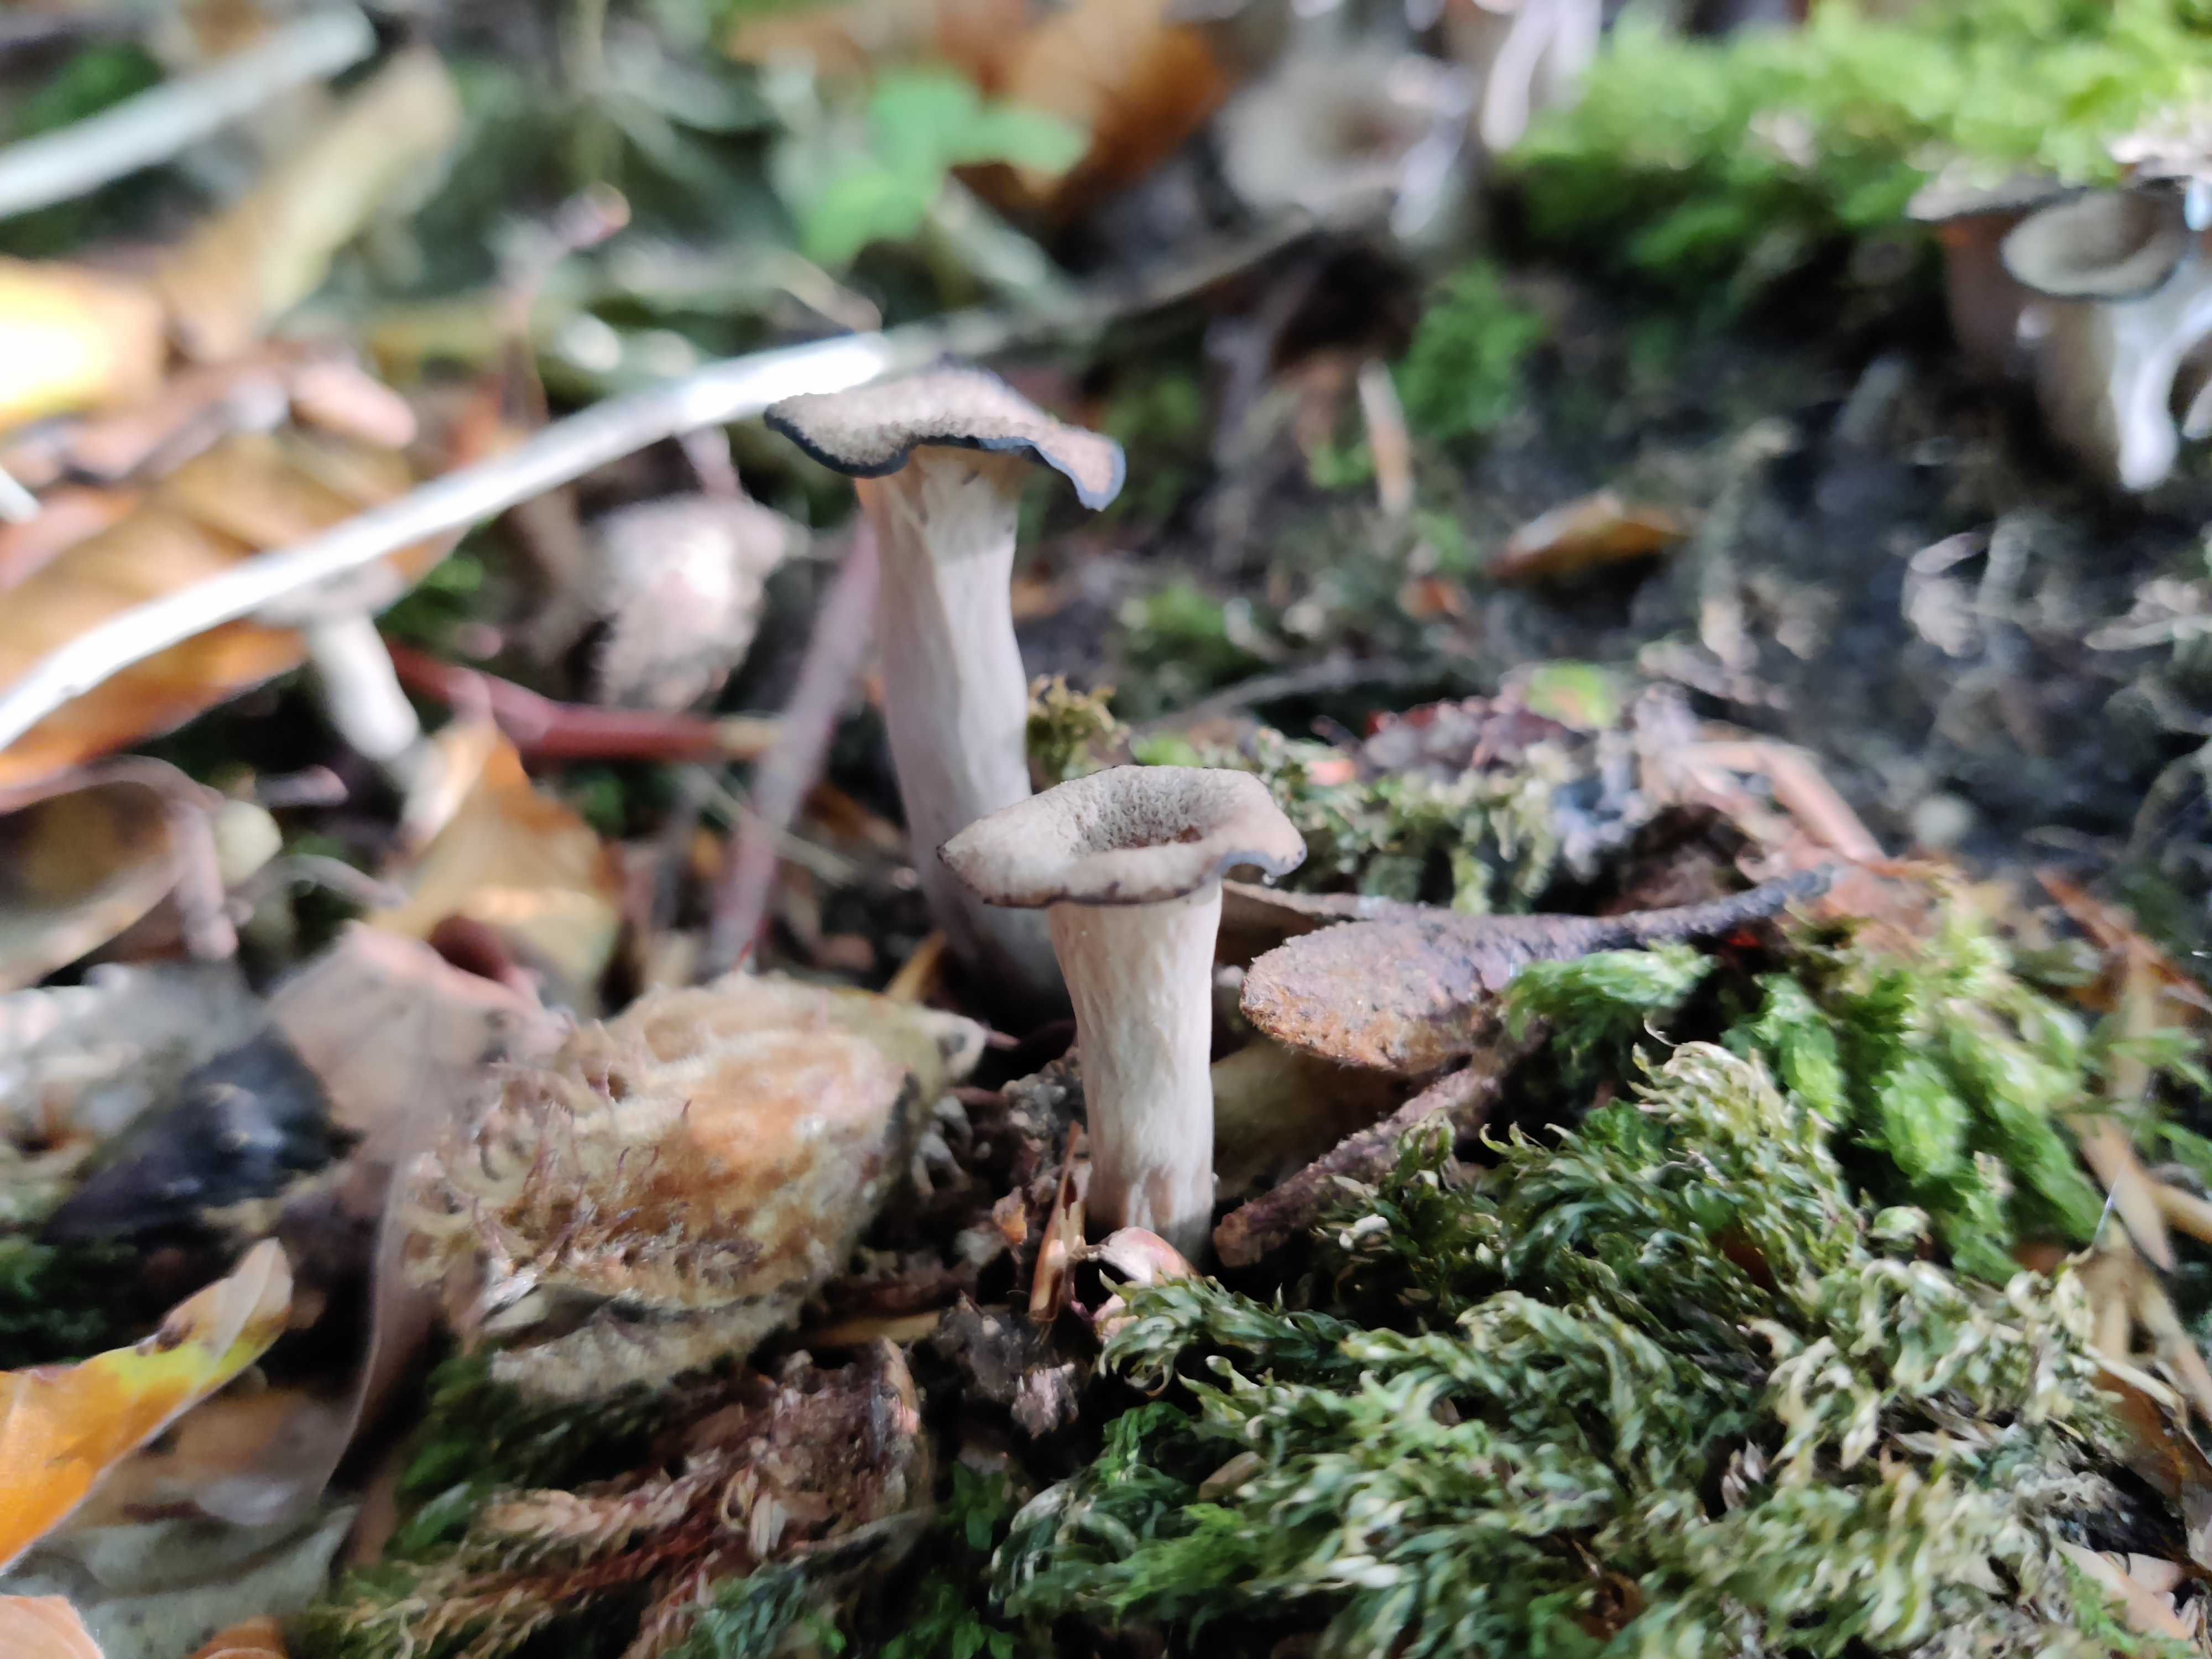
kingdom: Fungi
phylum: Basidiomycota
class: Agaricomycetes
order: Cantharellales
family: Hydnaceae
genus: Craterellus
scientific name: Craterellus cornucopioides
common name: trompetsvamp
